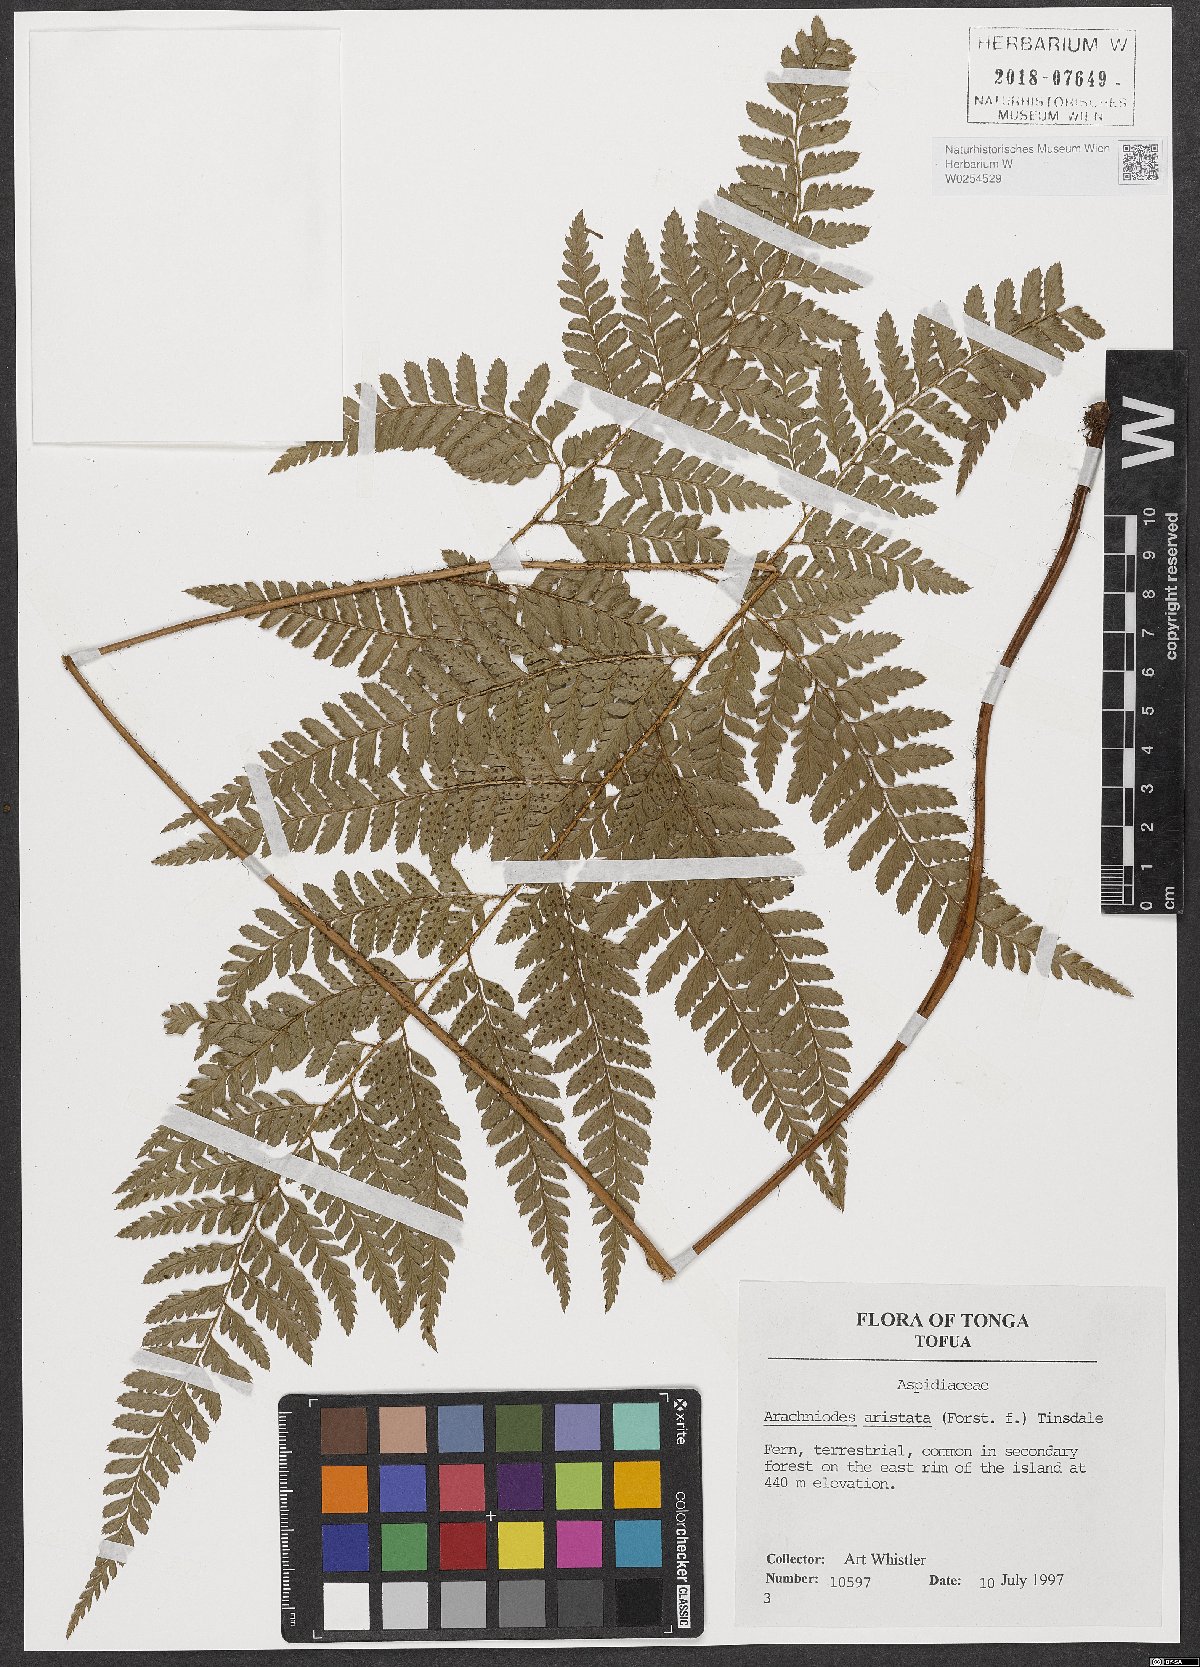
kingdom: Plantae
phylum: Tracheophyta
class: Polypodiopsida
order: Polypodiales
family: Dryopteridaceae
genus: Arachniodes
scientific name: Arachniodes aristata
